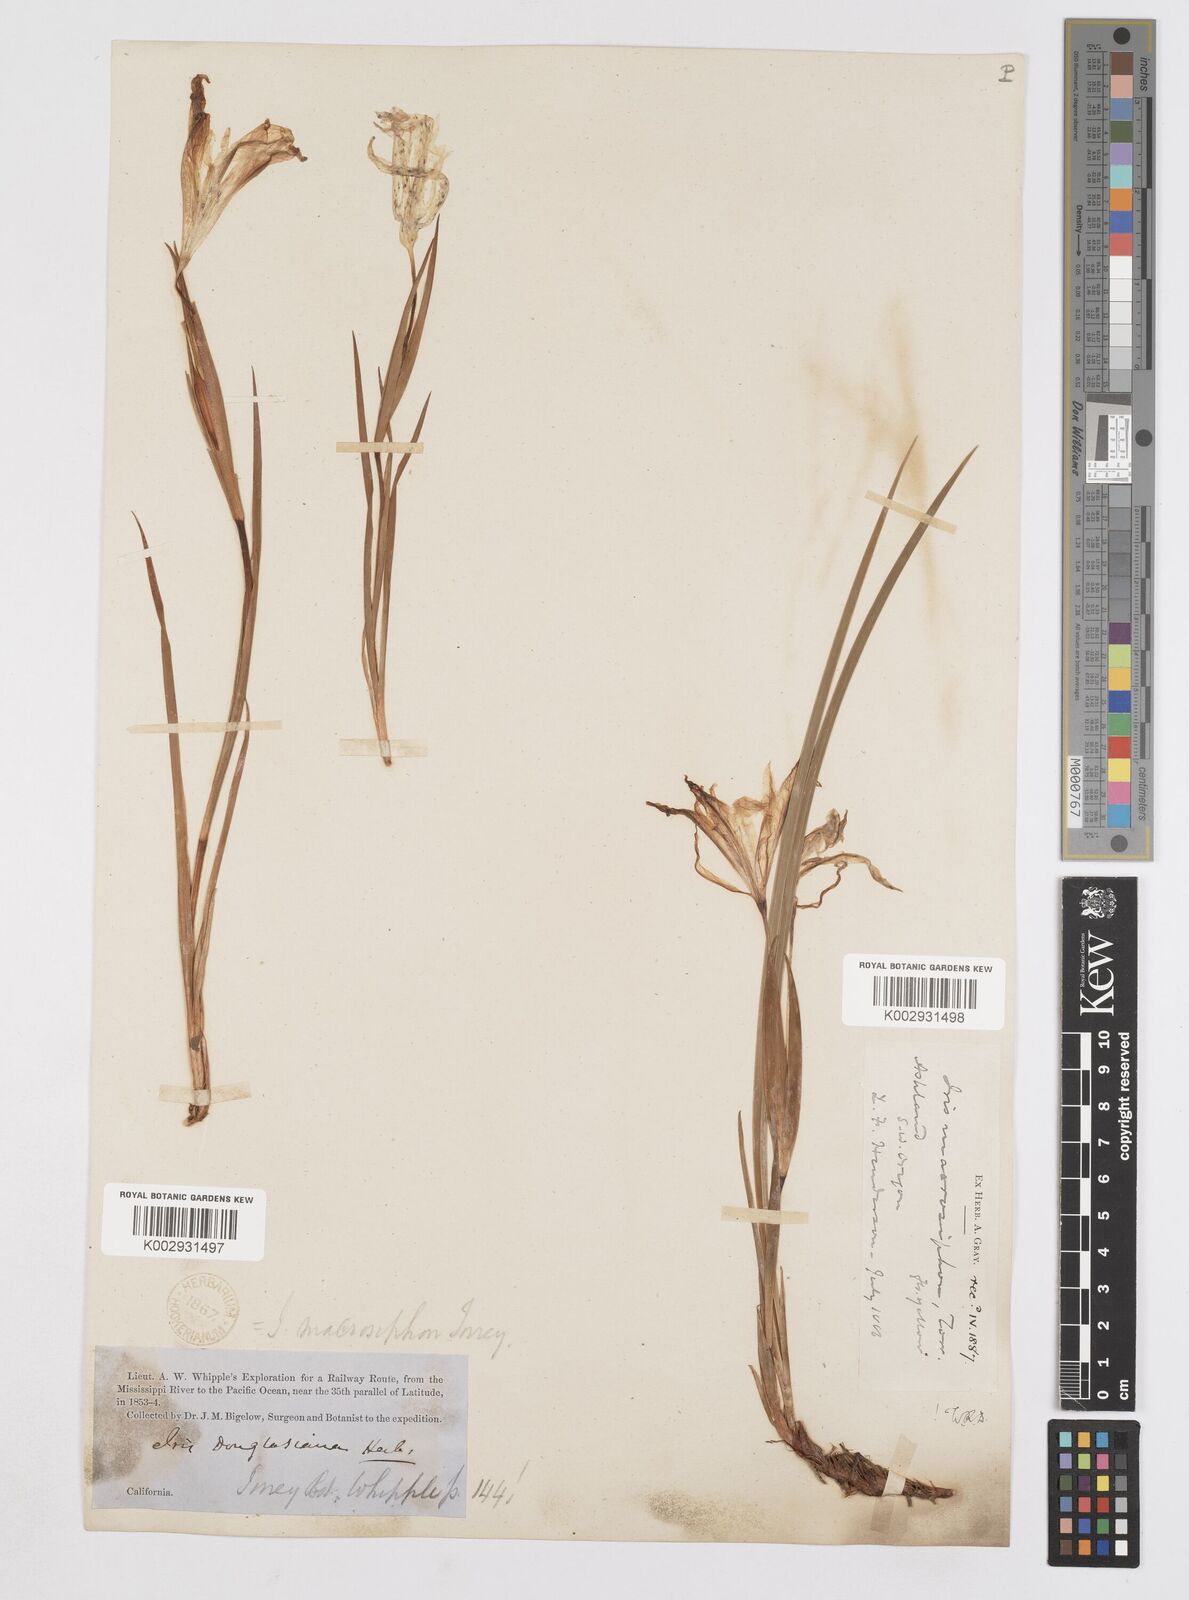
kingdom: Plantae
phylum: Tracheophyta
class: Liliopsida
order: Asparagales
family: Iridaceae
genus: Iris
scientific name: Iris macrosiphon
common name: Ground iris
